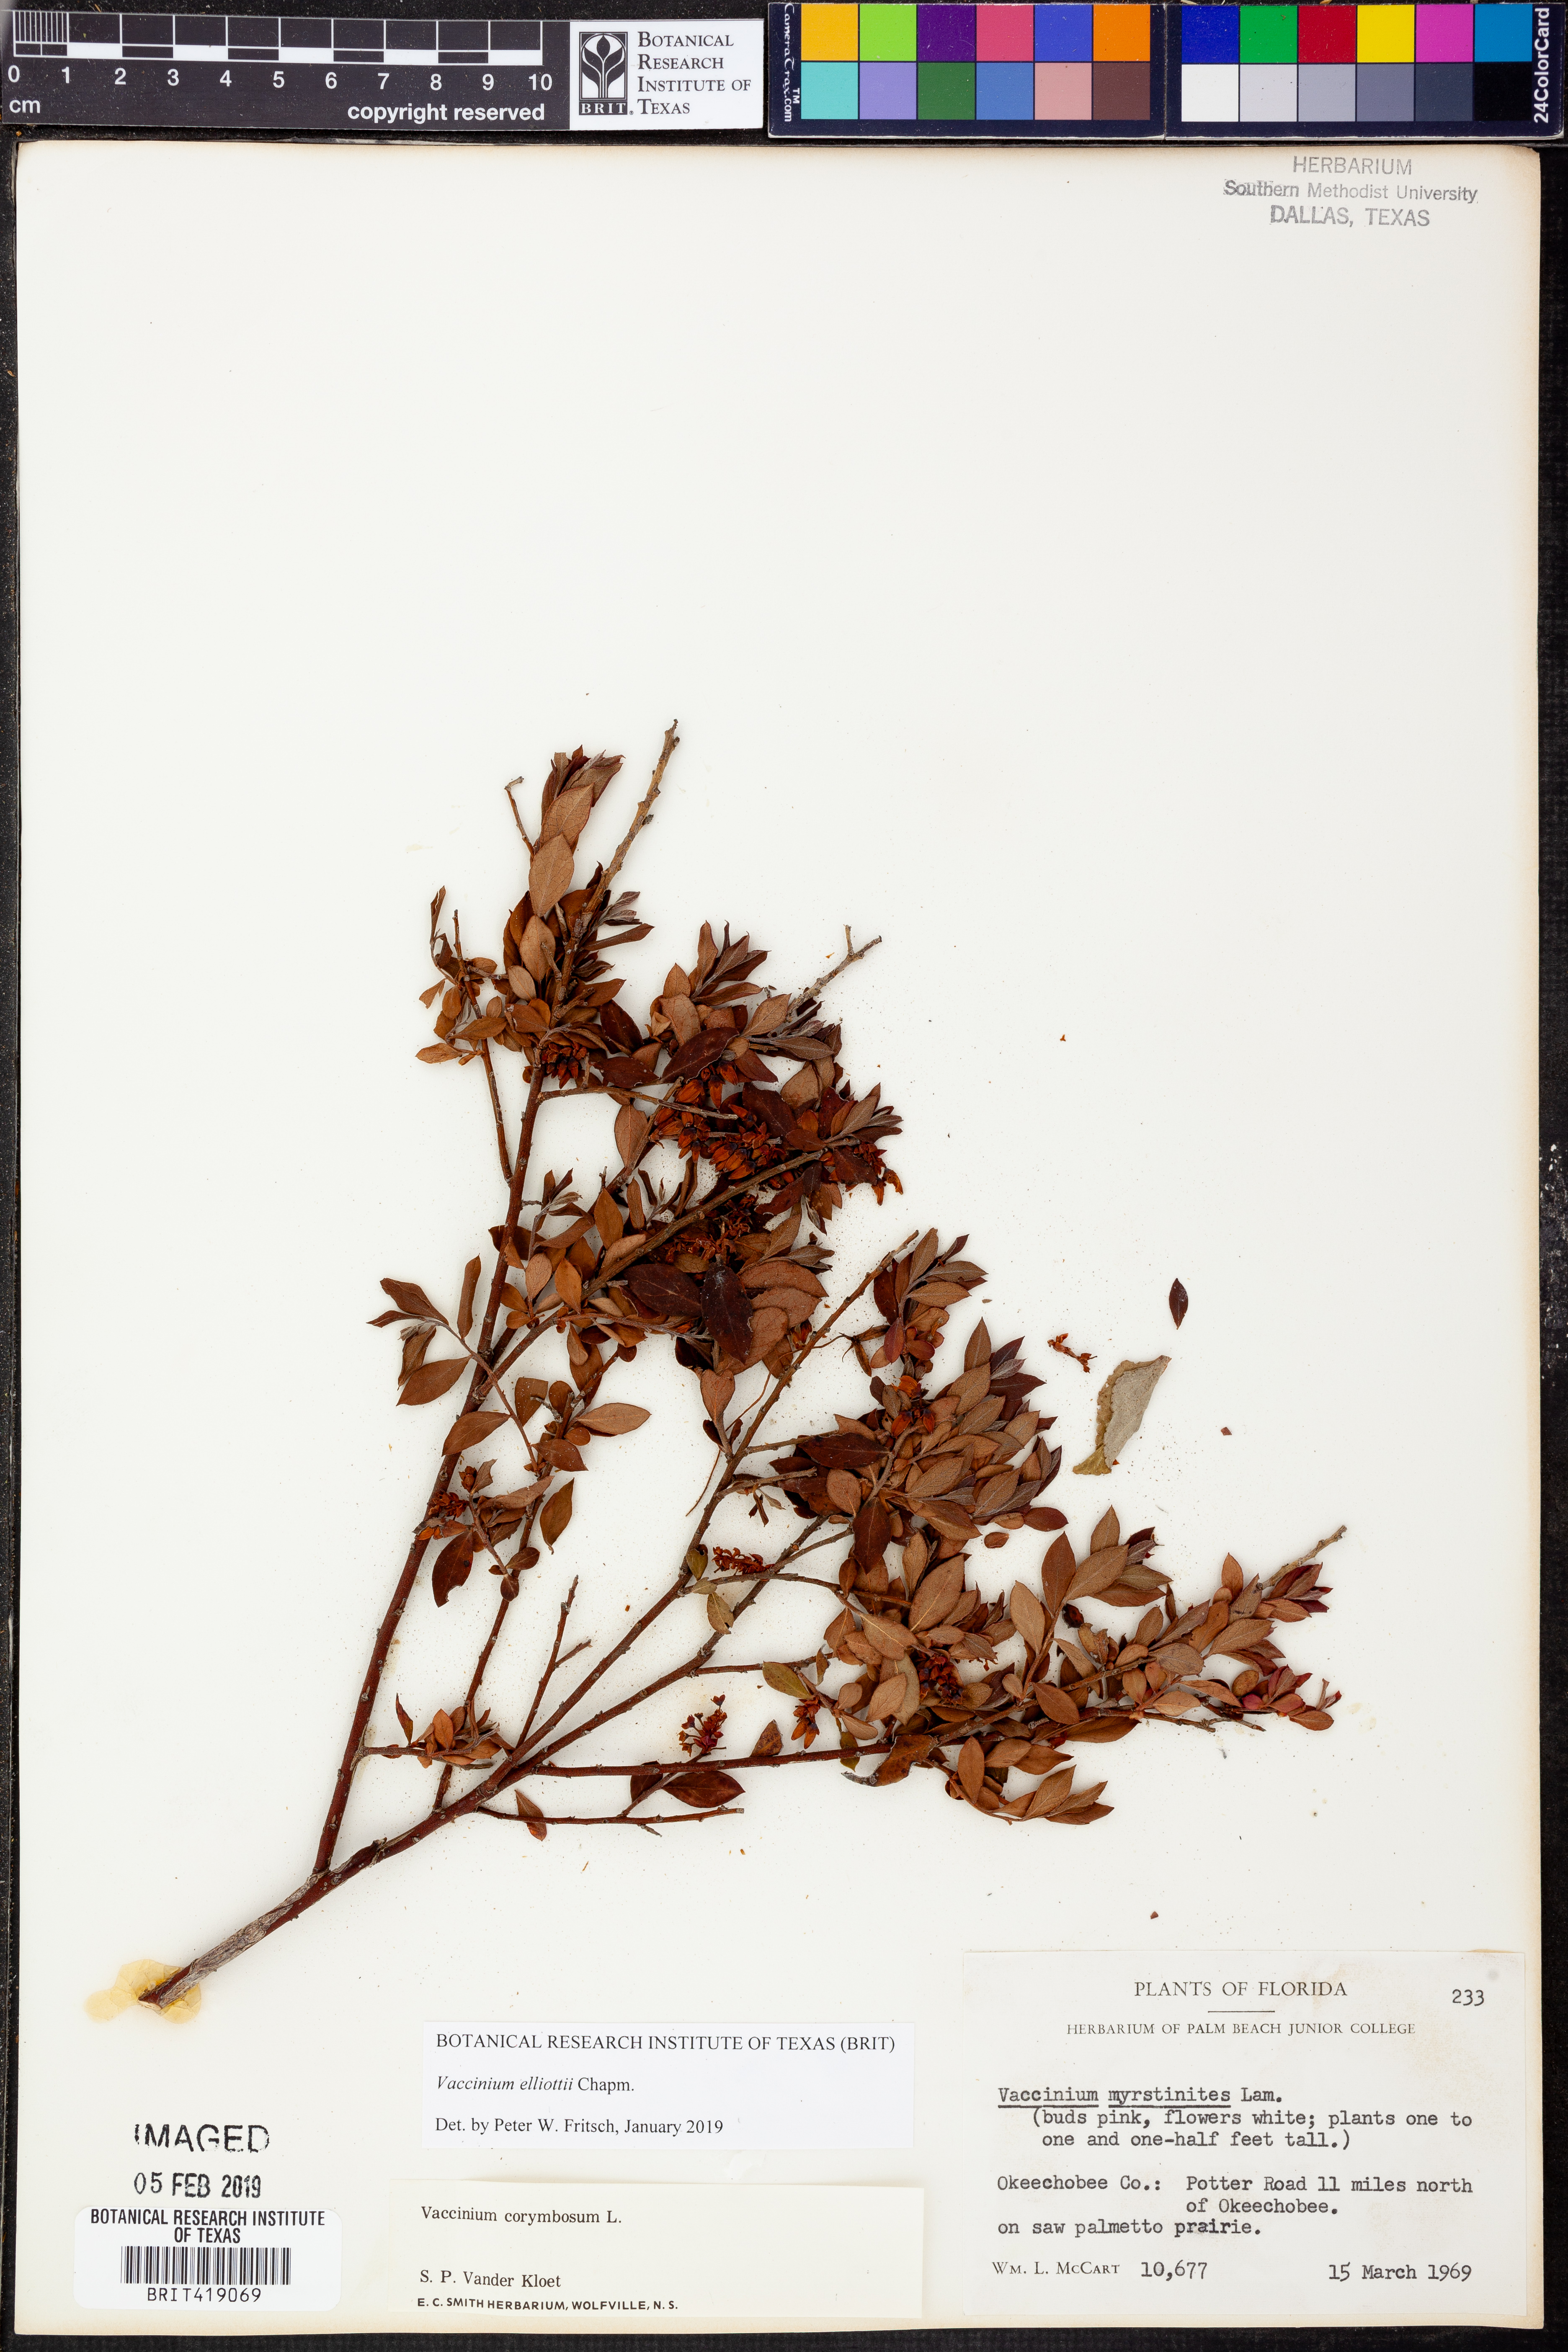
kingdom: Plantae
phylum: Tracheophyta
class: Magnoliopsida
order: Ericales
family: Ericaceae
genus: Vaccinium
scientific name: Vaccinium corymbosum
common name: Blueberry
